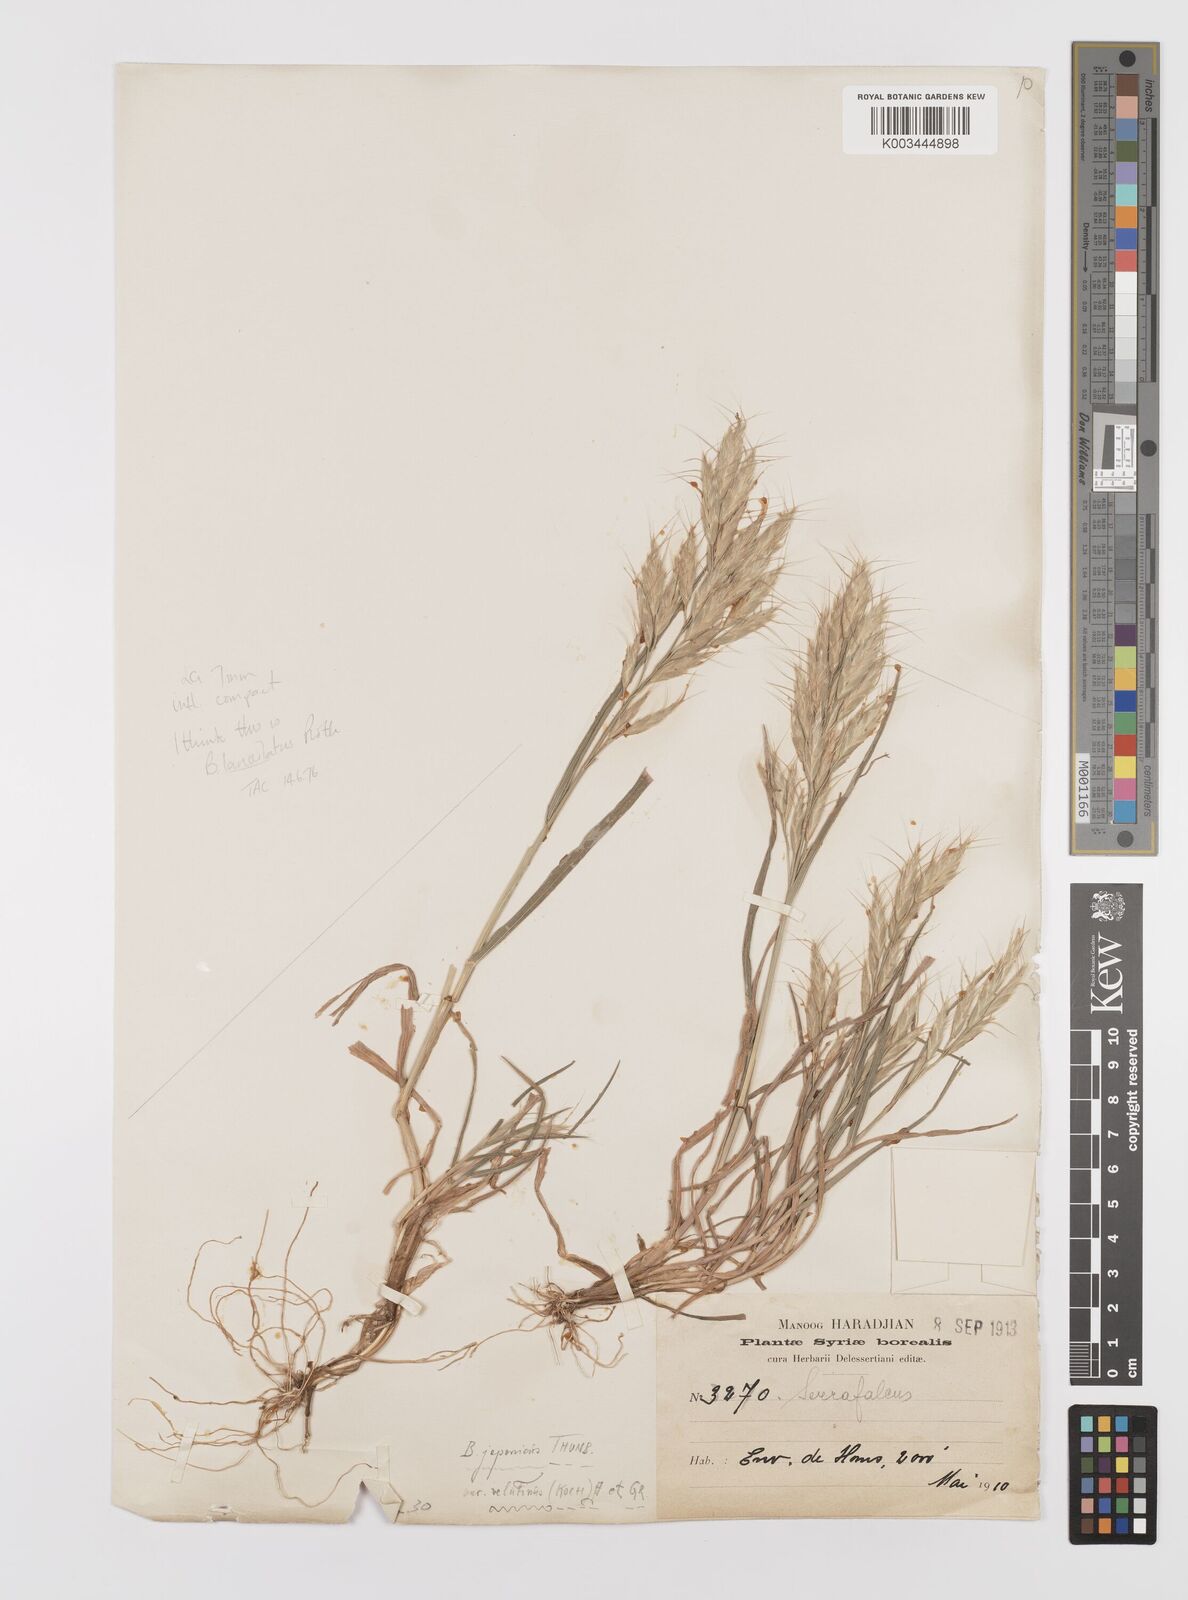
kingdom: Plantae
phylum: Tracheophyta
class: Liliopsida
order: Poales
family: Poaceae
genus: Bromus
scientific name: Bromus lanceolatus
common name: Mediterranean brome
